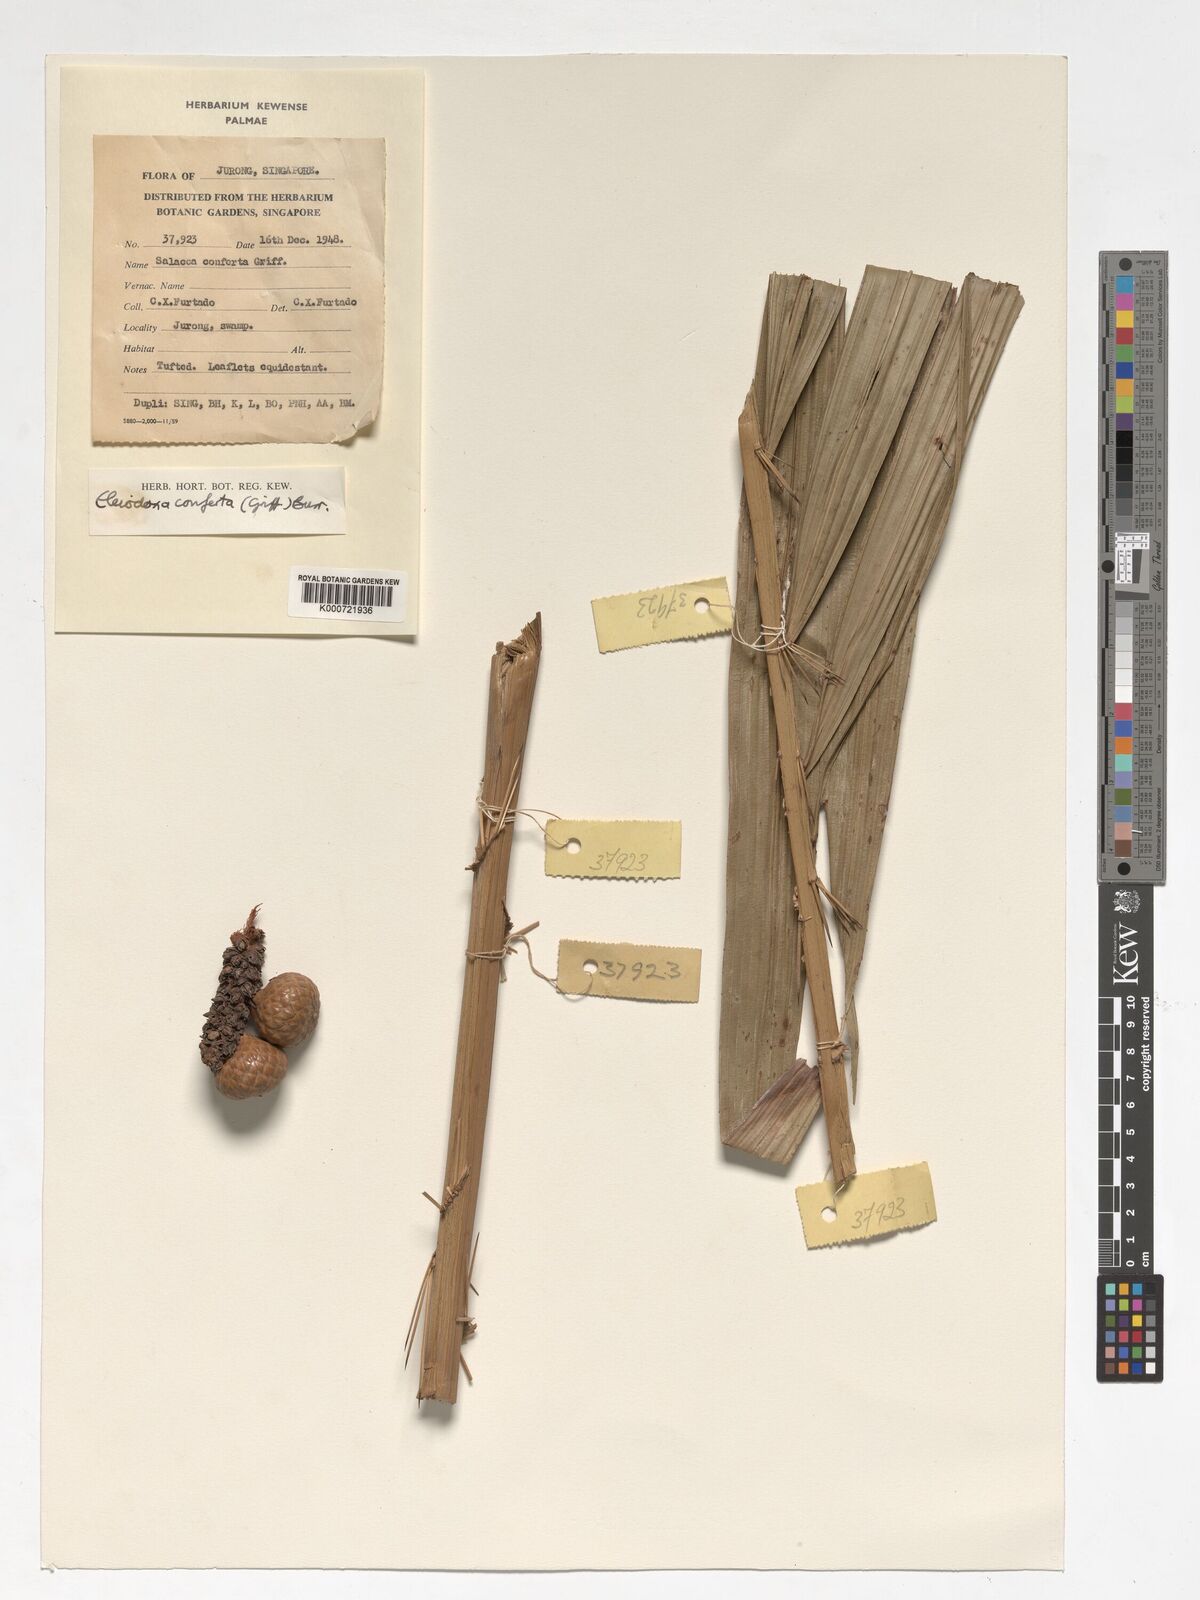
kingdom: Plantae
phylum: Tracheophyta
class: Liliopsida
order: Arecales
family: Arecaceae
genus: Eleiodoxa
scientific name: Eleiodoxa conferta
